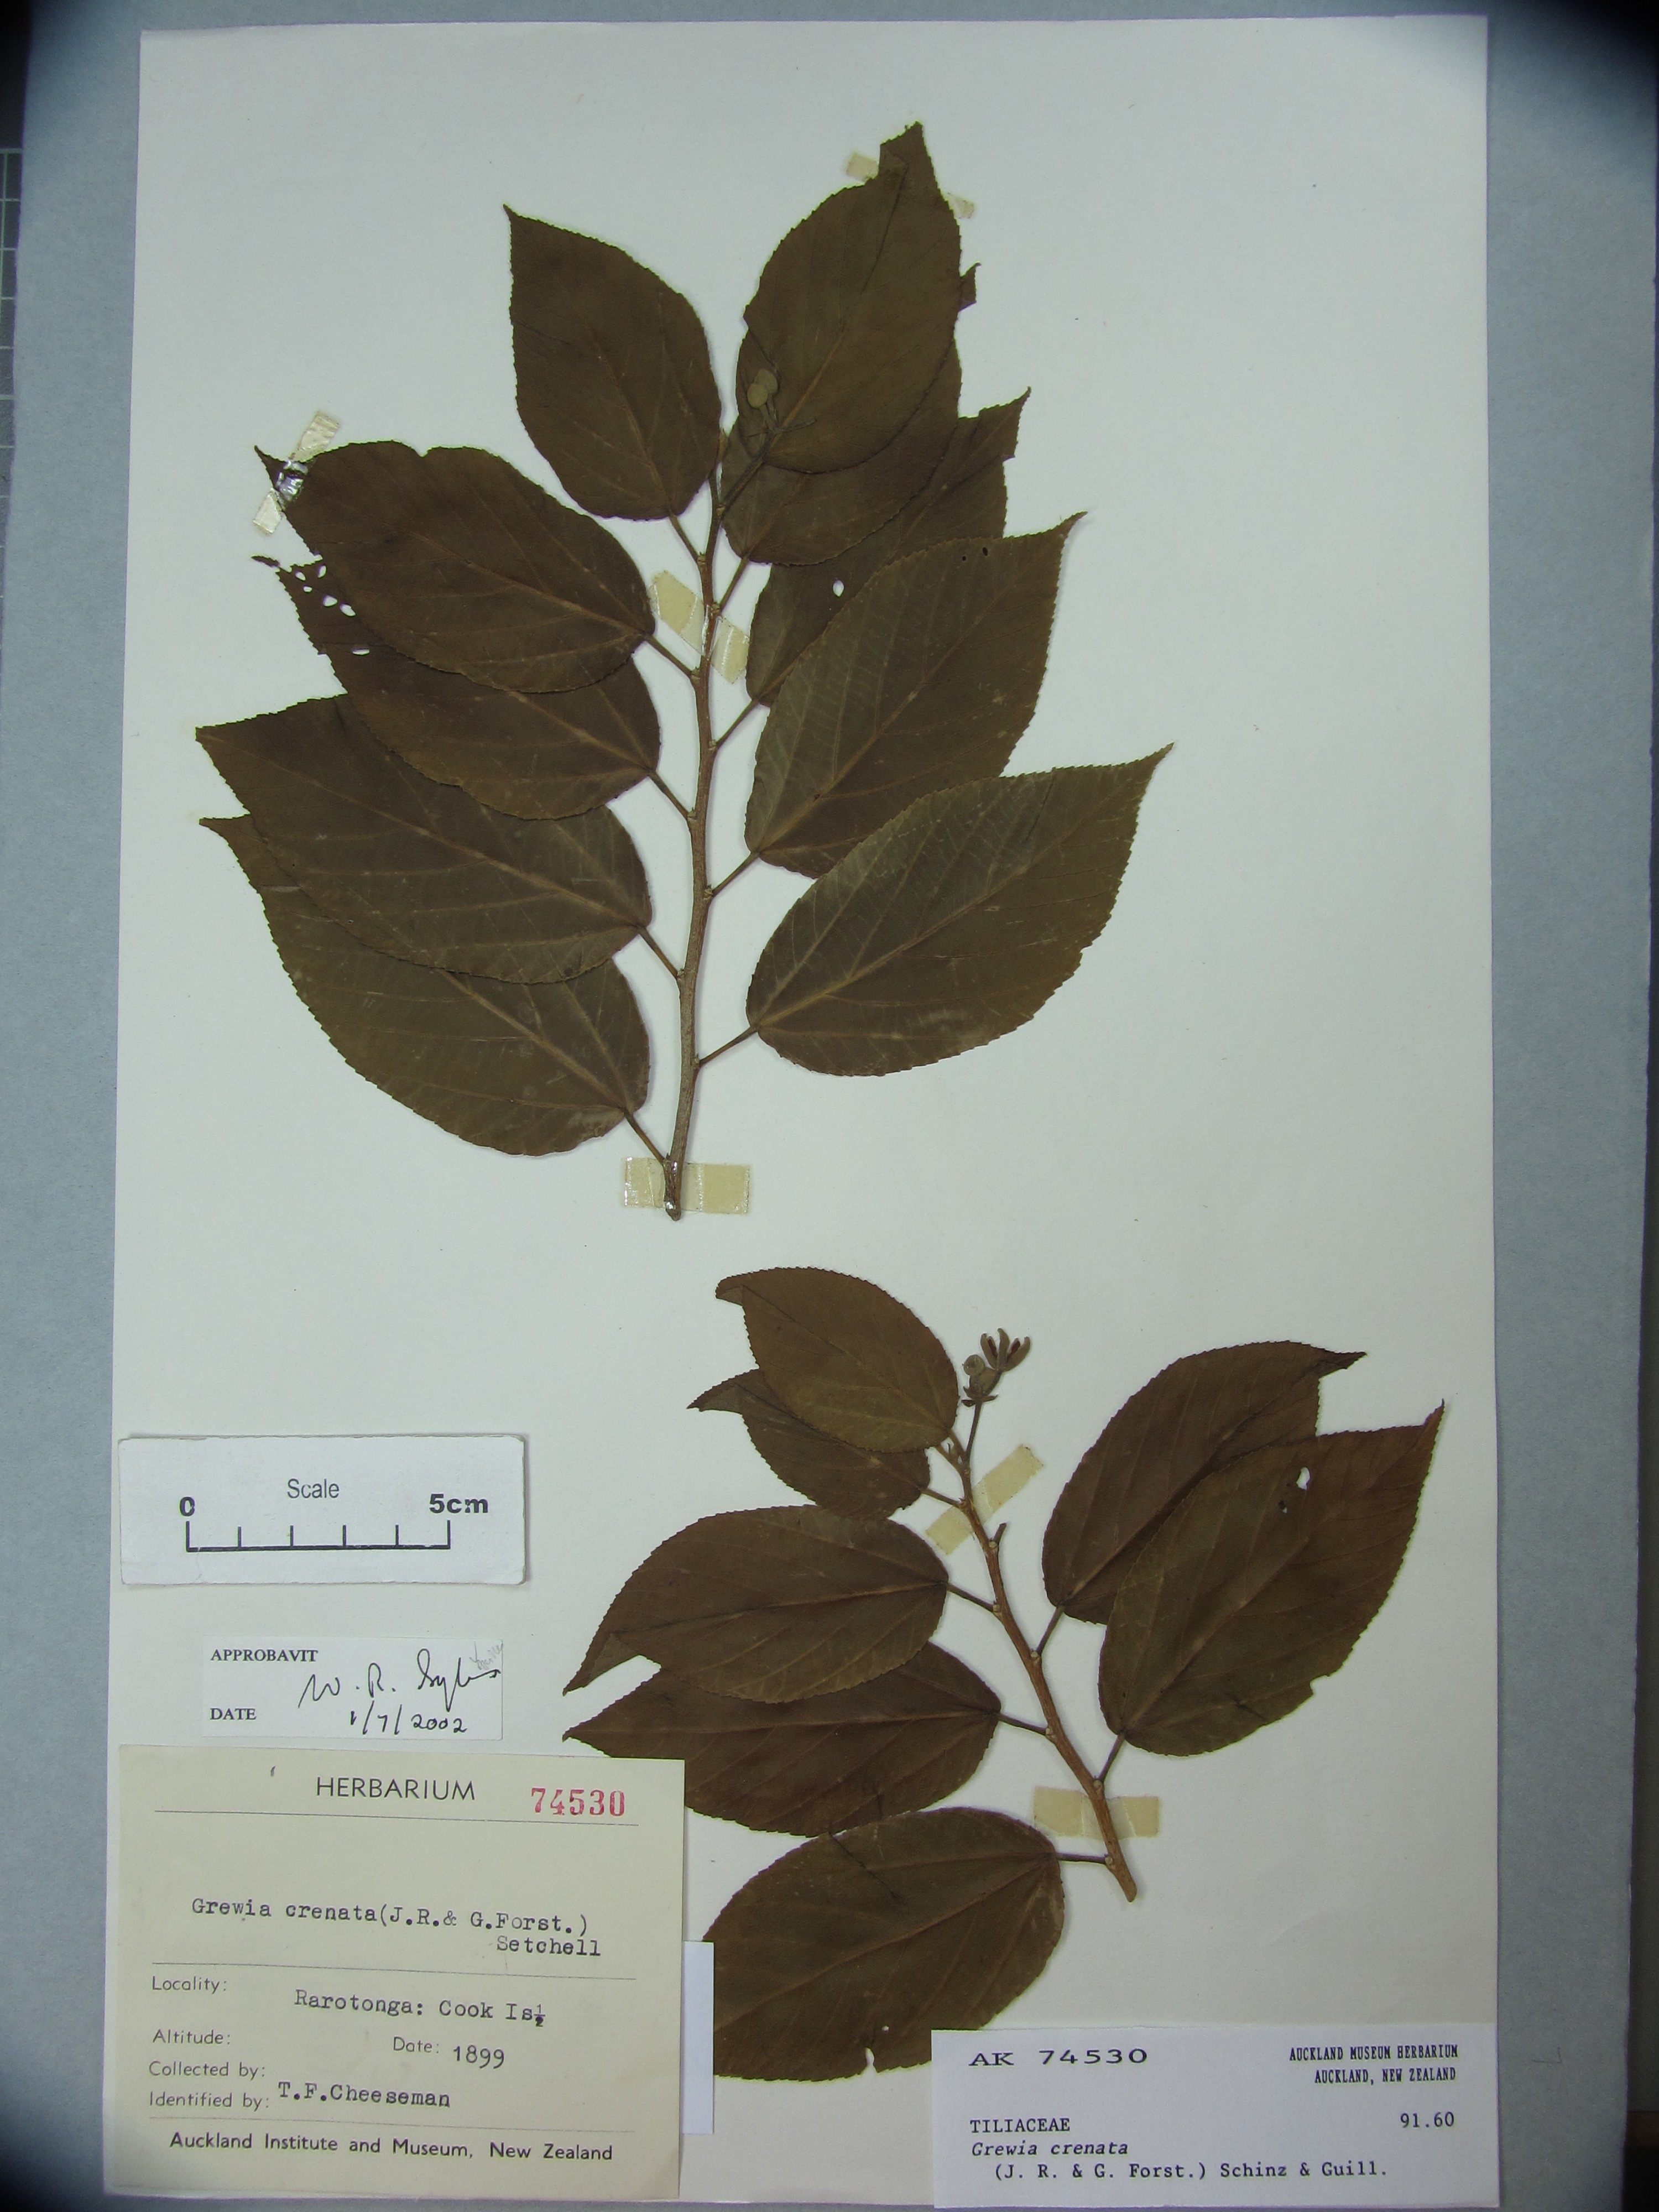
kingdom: Plantae
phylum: Tracheophyta
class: Magnoliopsida
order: Malvales
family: Malvaceae
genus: Grewia
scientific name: Grewia crenata
